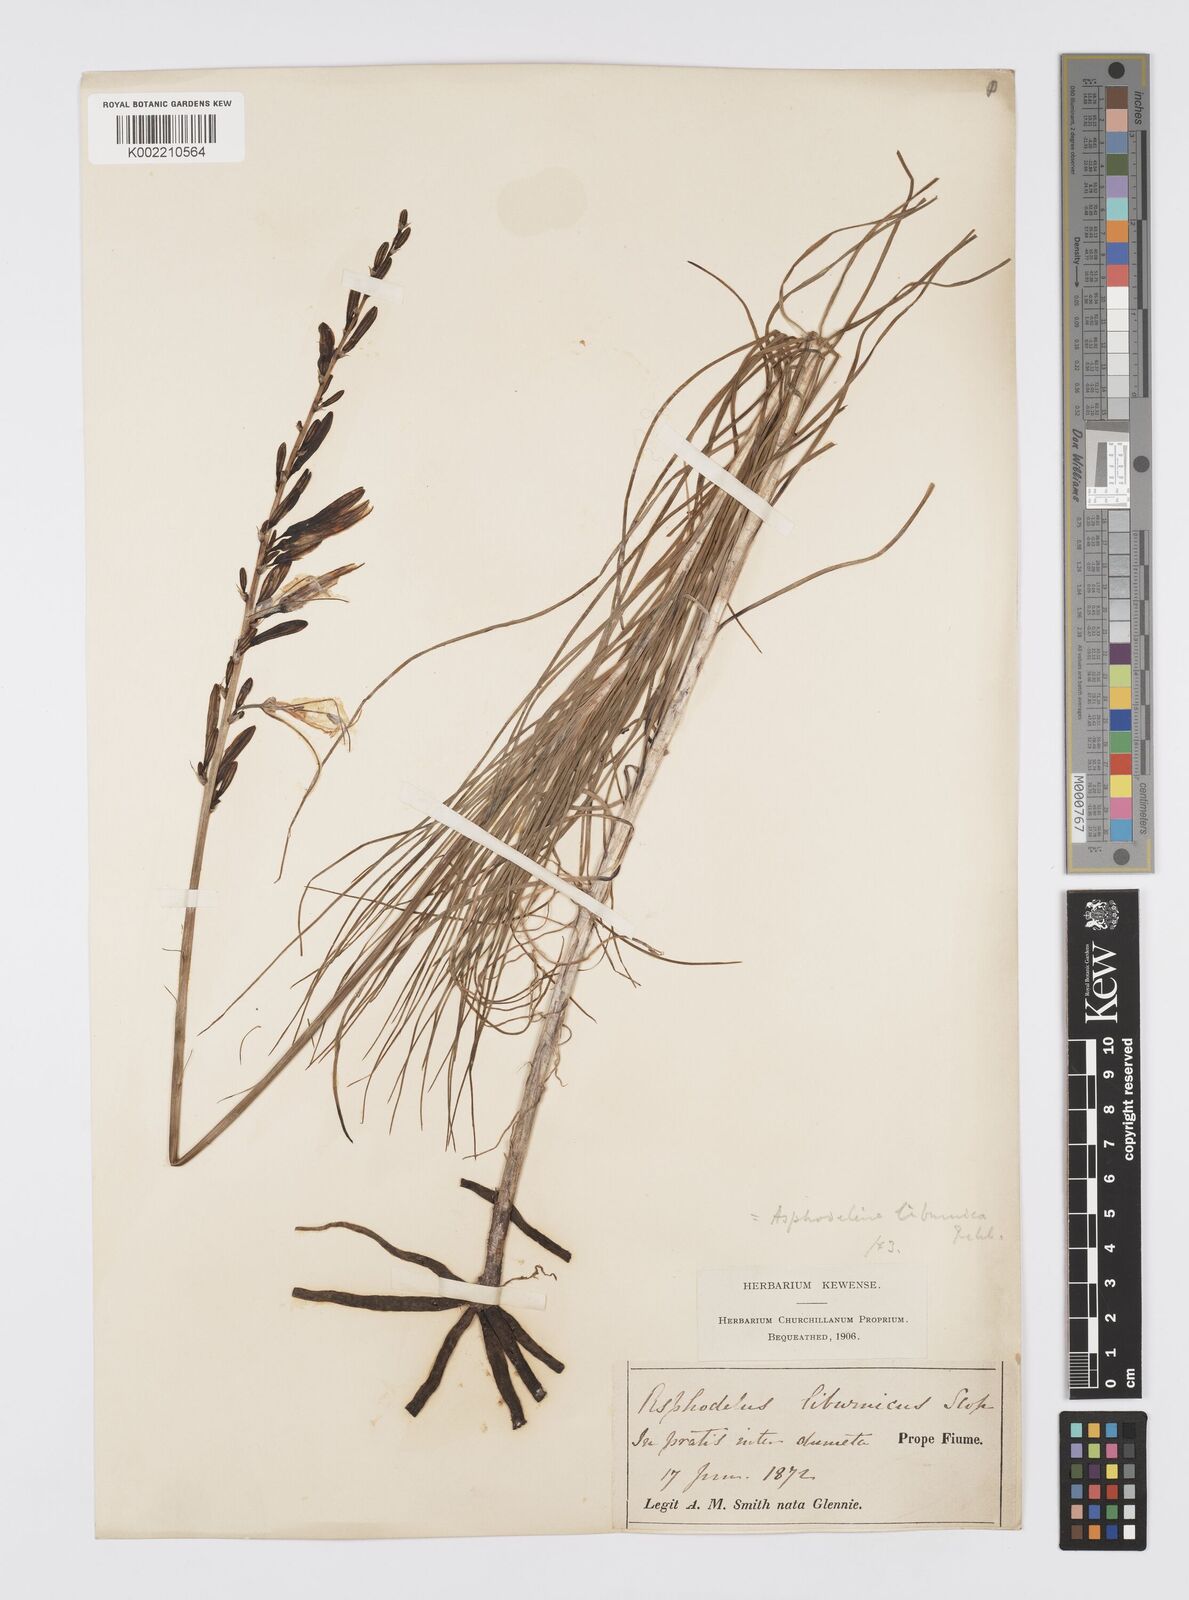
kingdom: Plantae
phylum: Tracheophyta
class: Liliopsida
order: Asparagales
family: Asphodelaceae
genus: Asphodeline
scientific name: Asphodeline liburnica
